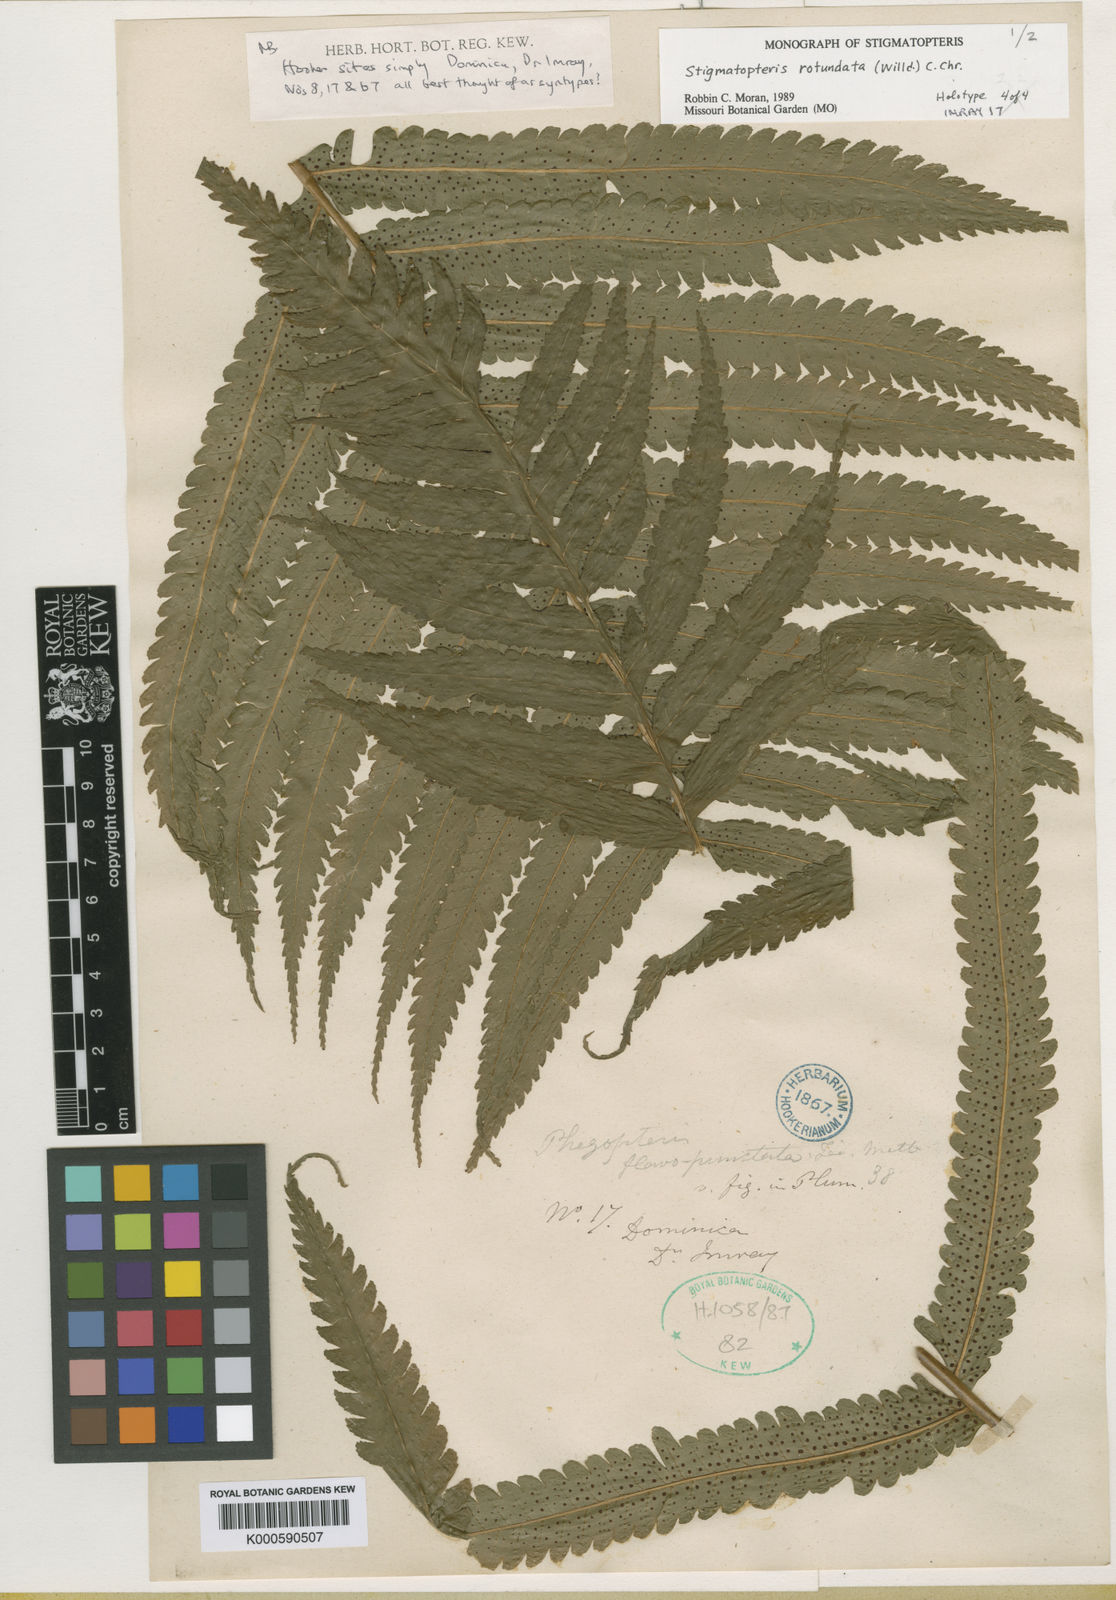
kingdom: Plantae
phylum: Tracheophyta
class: Polypodiopsida
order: Polypodiales
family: Dryopteridaceae
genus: Stigmatopteris
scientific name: Stigmatopteris rotundata
